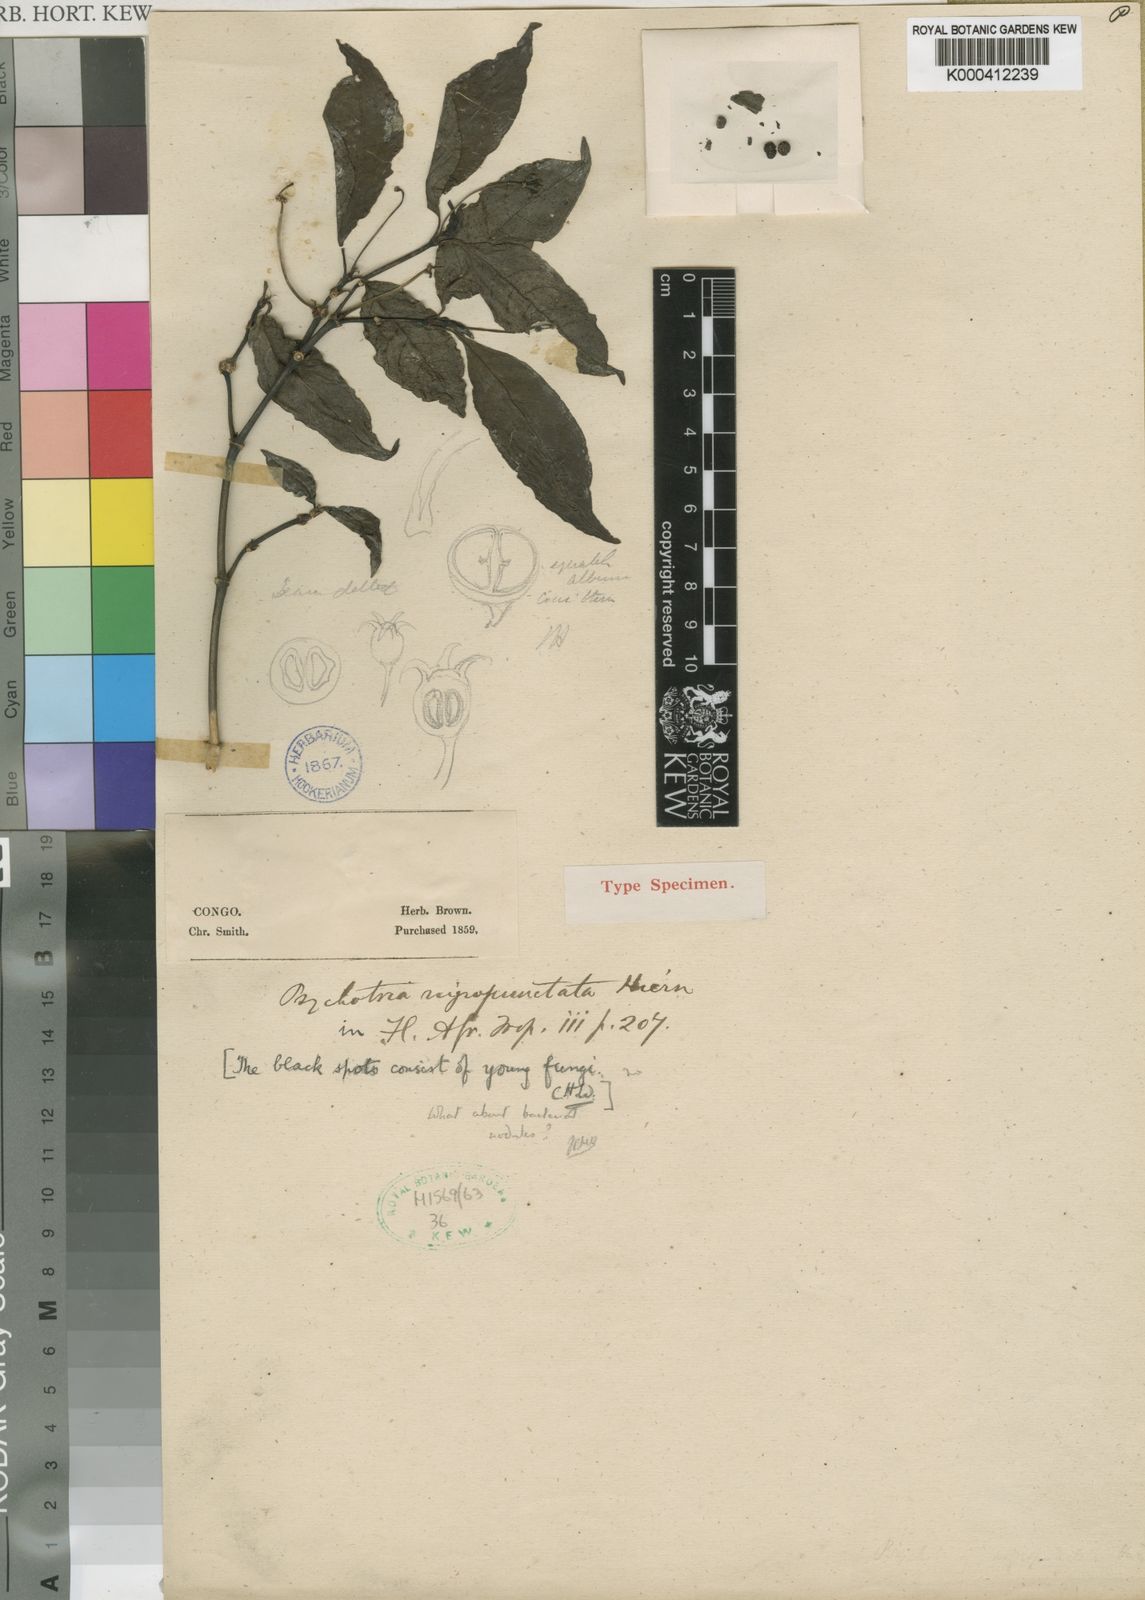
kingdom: Plantae
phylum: Tracheophyta
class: Magnoliopsida
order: Gentianales
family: Rubiaceae
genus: Psychotria
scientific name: Psychotria nigropunctata
